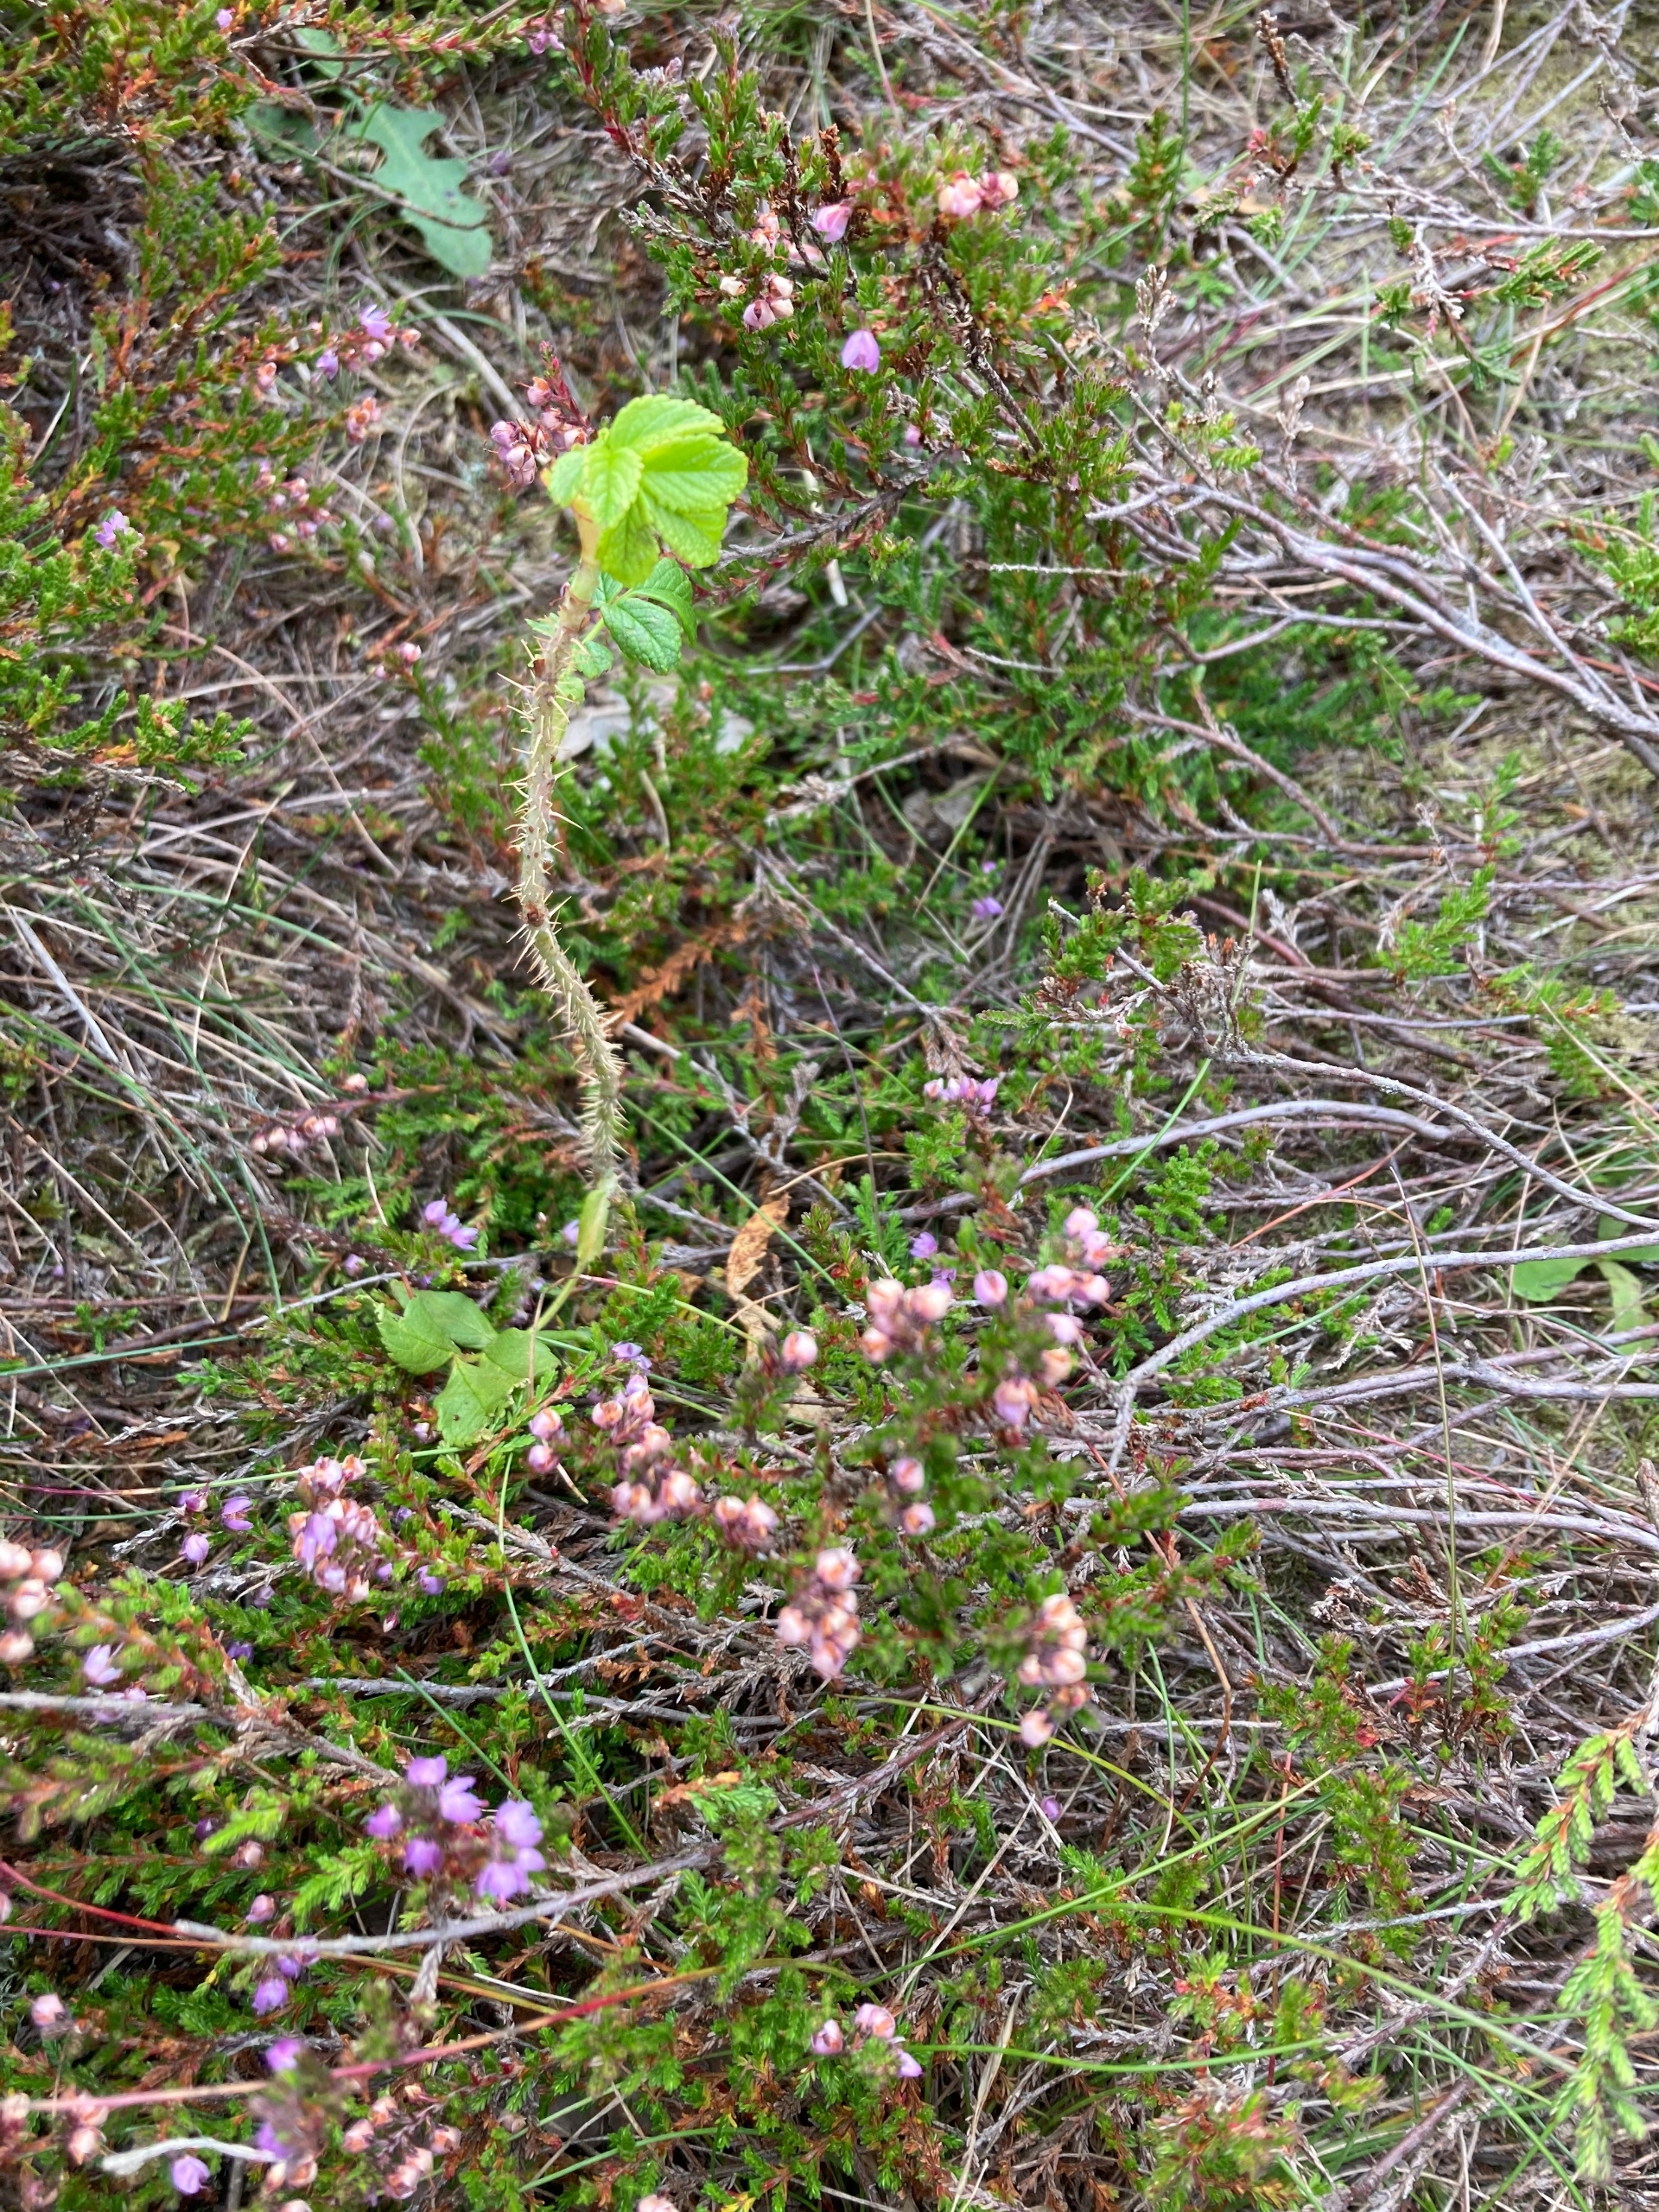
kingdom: Plantae
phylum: Tracheophyta
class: Magnoliopsida
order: Rosales
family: Rosaceae
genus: Rosa
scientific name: Rosa rugosa
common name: Rynket rose
